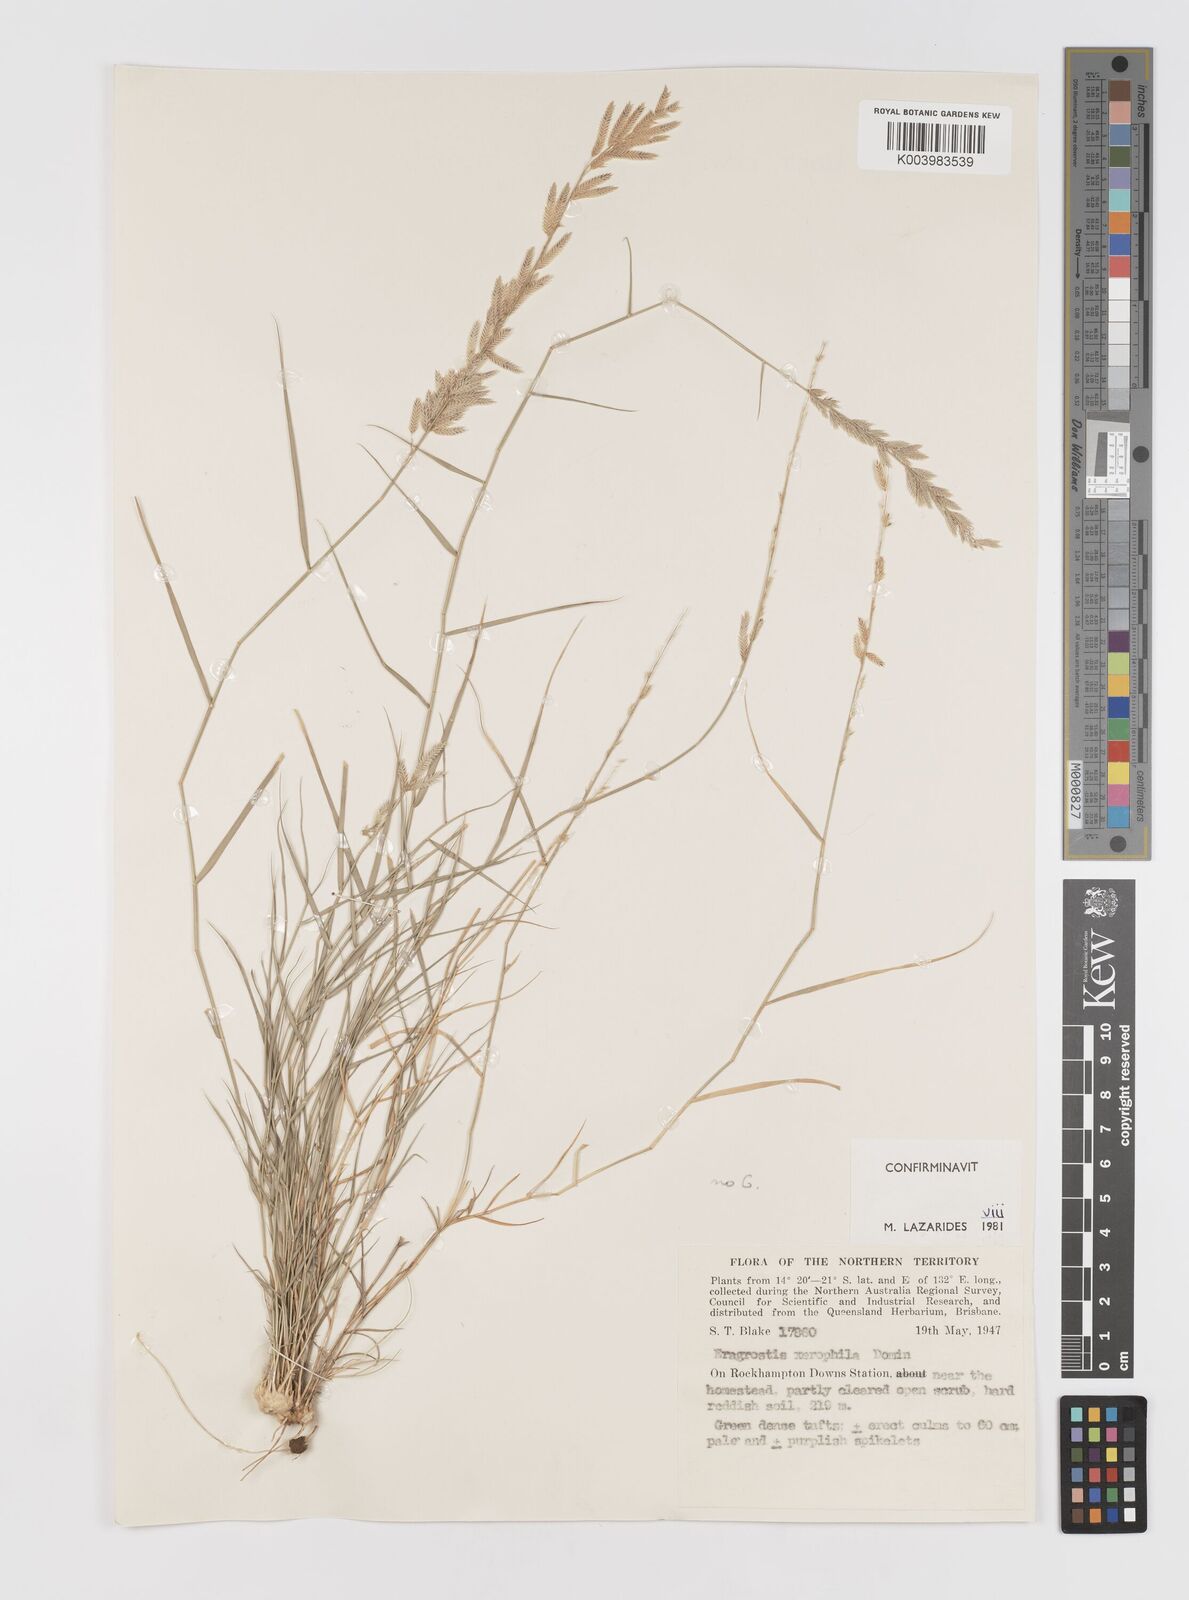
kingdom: Plantae
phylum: Tracheophyta
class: Liliopsida
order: Poales
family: Poaceae
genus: Eragrostis
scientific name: Eragrostis xerophila
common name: Wire wandarrie grass
